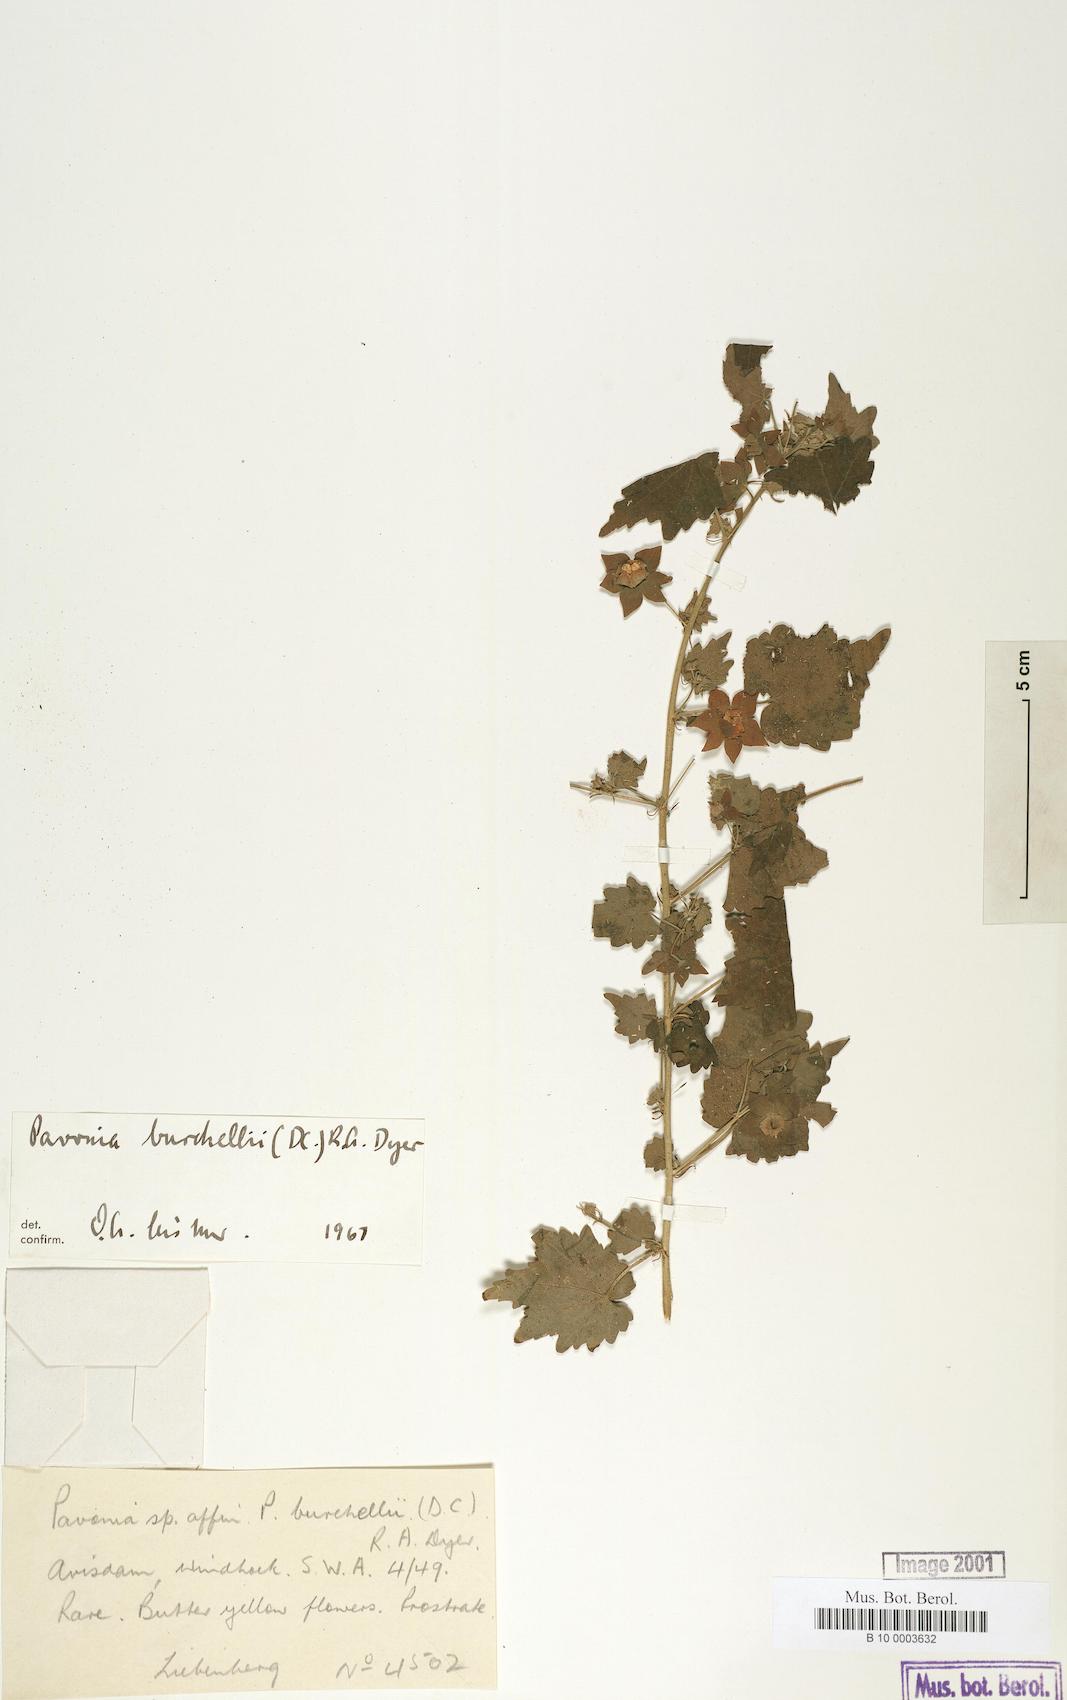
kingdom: Plantae
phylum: Tracheophyta
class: Magnoliopsida
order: Malvales
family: Malvaceae
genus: Pavonia
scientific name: Pavonia burchellii
